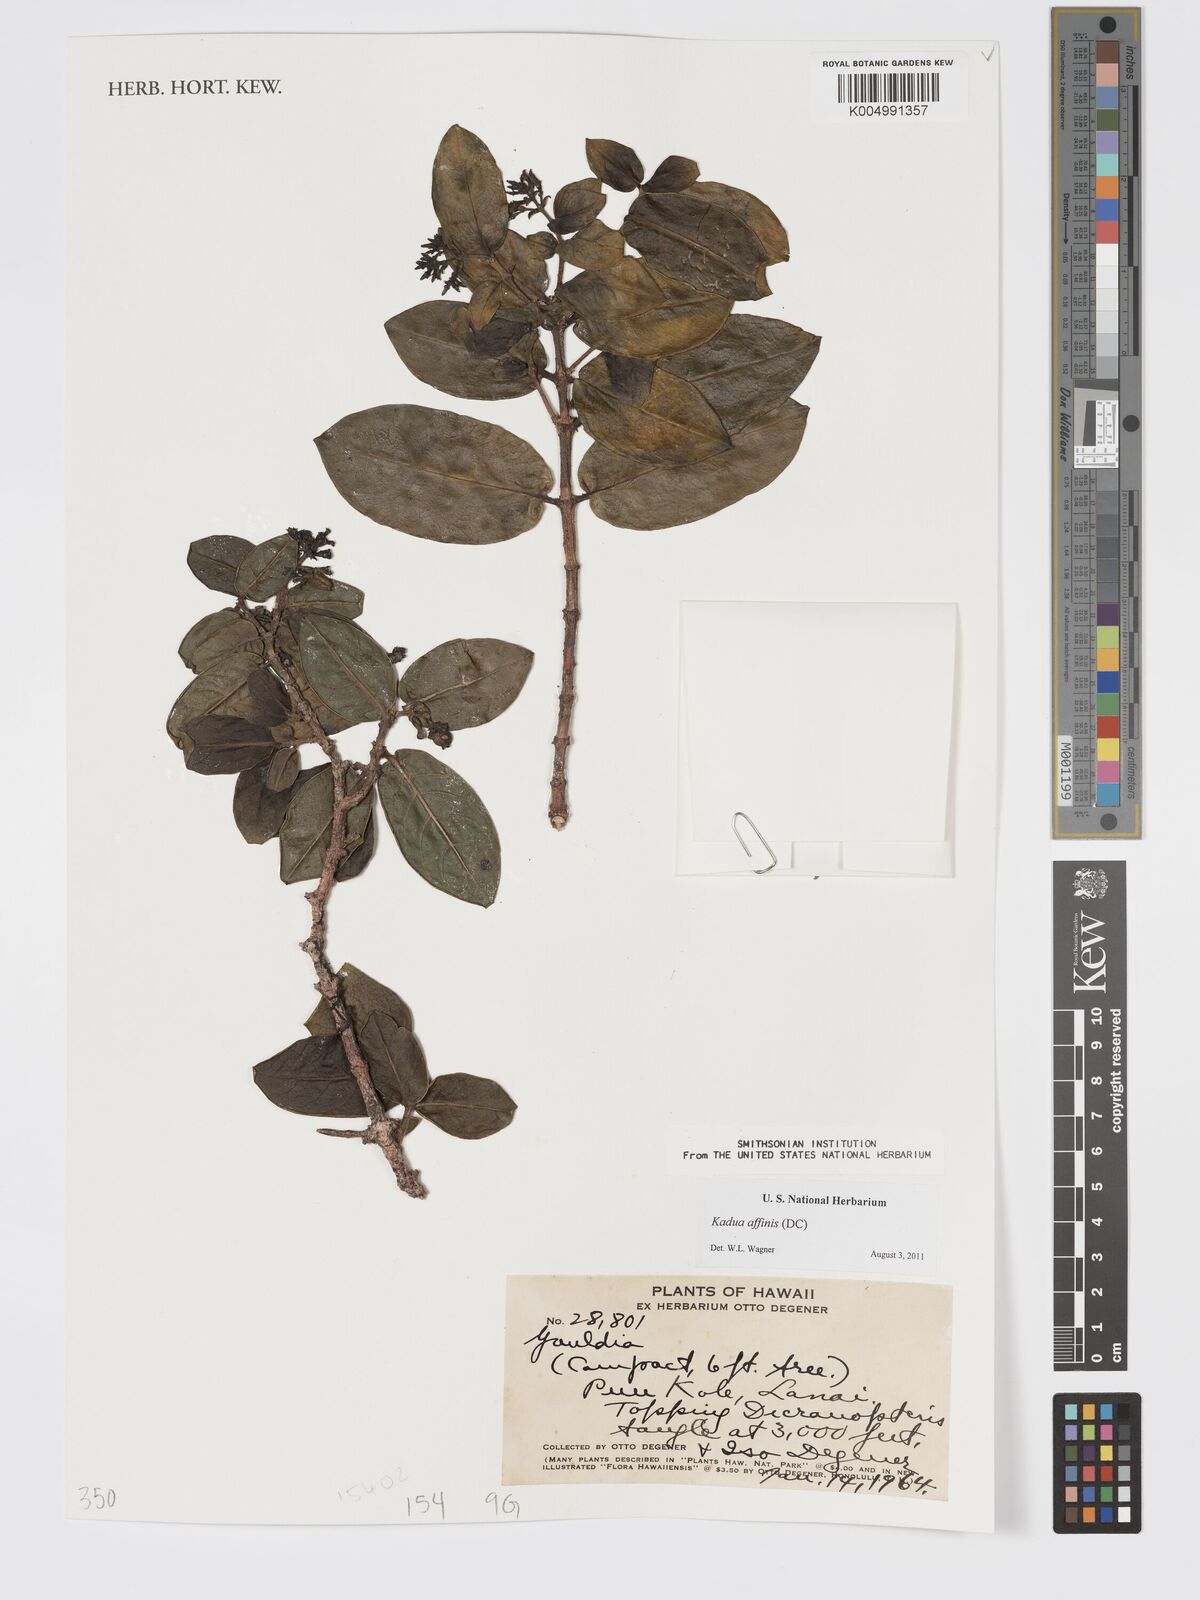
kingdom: Plantae
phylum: Tracheophyta
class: Magnoliopsida
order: Gentianales
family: Rubiaceae
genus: Kadua
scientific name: Kadua affinis
